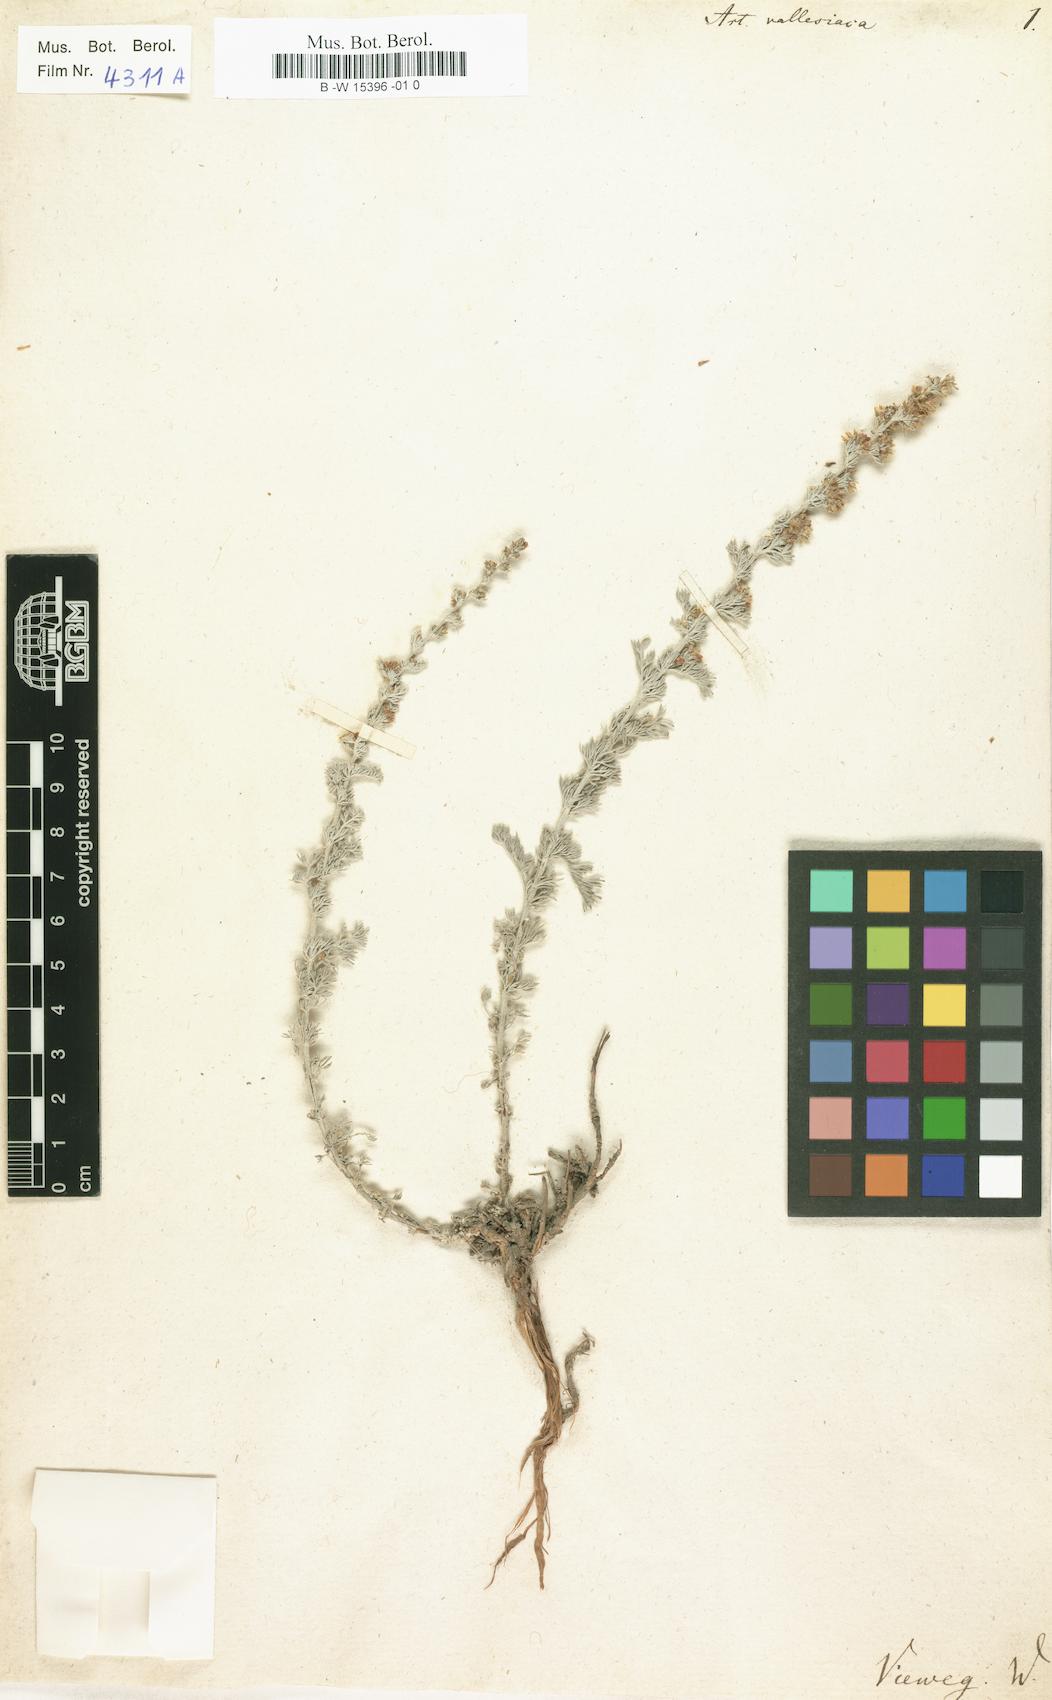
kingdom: Plantae
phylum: Tracheophyta
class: Magnoliopsida
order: Asterales
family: Asteraceae
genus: Artemisia
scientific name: Artemisia vallesiaca
